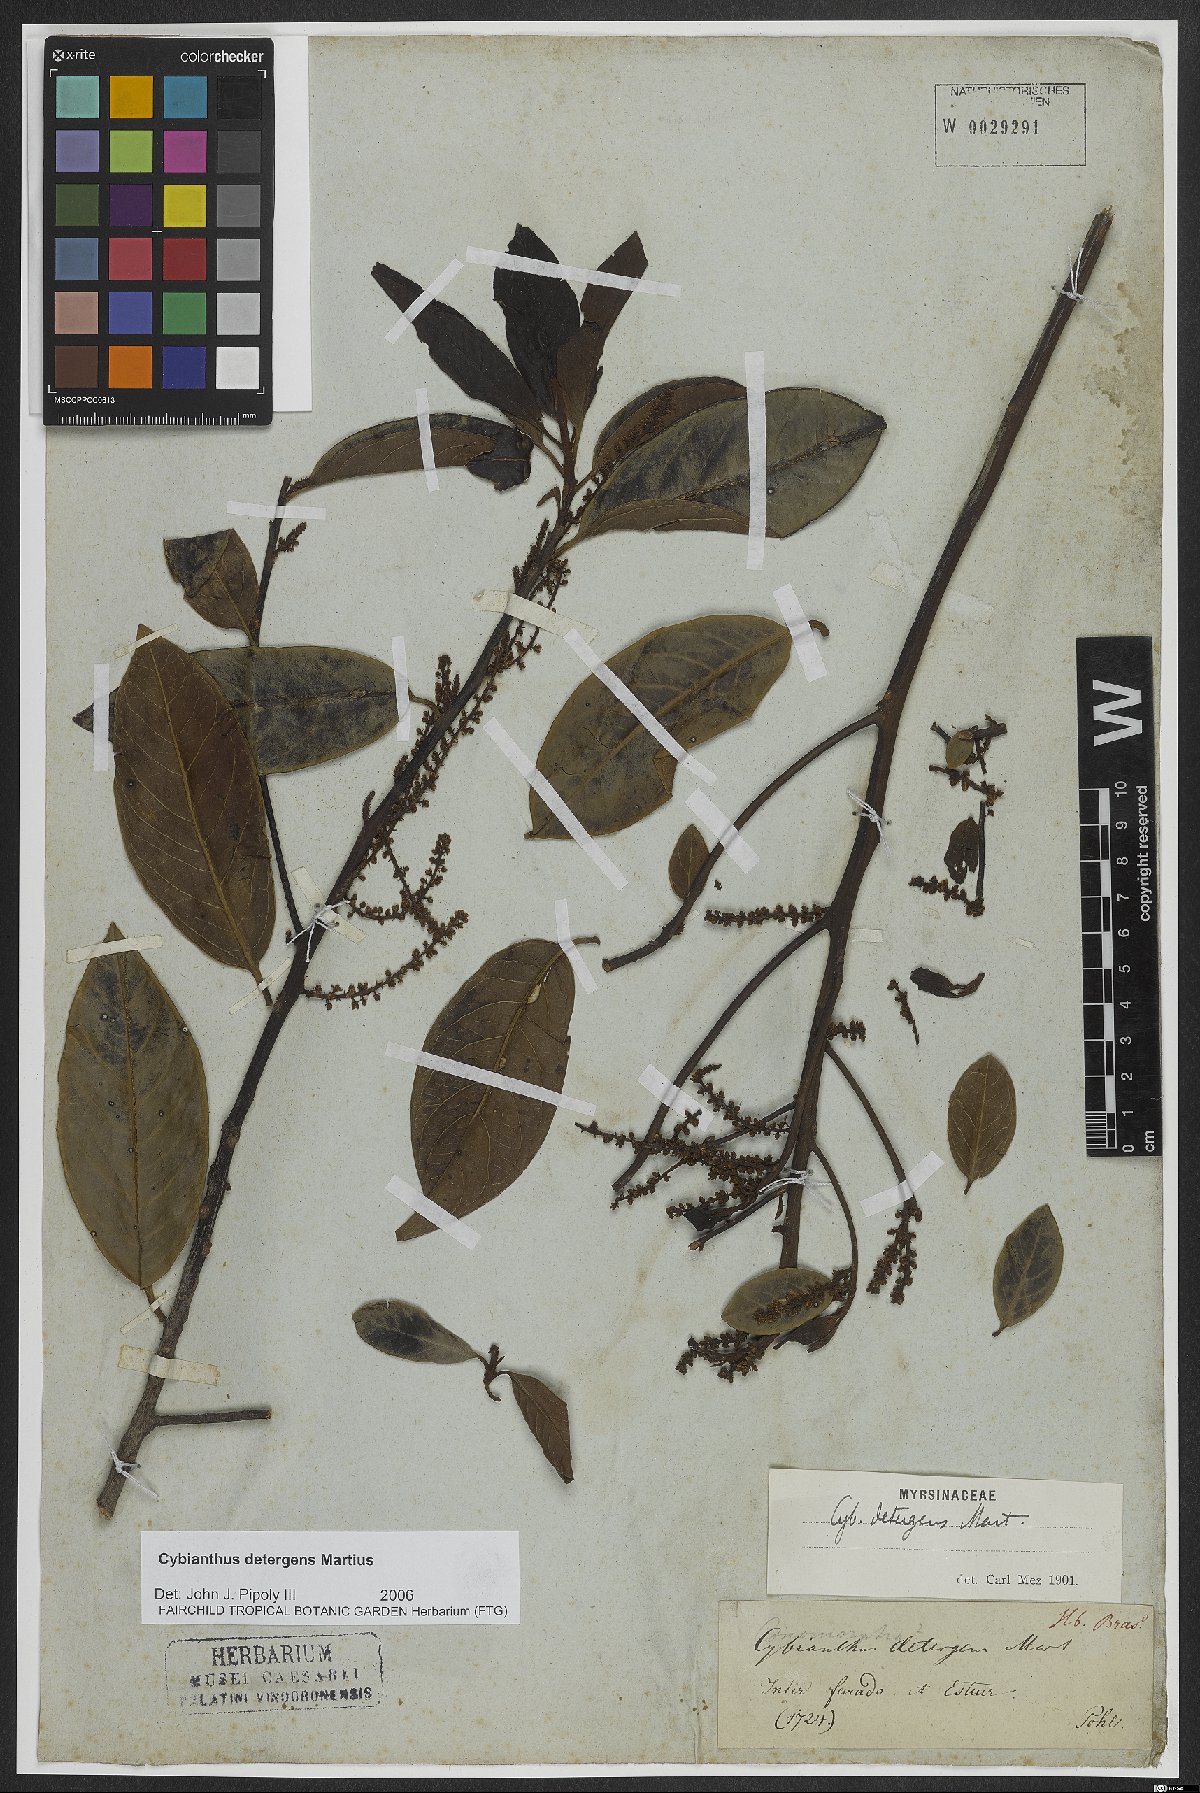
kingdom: Plantae
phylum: Tracheophyta
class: Magnoliopsida
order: Ericales
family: Primulaceae
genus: Cybianthus
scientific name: Cybianthus detergens
